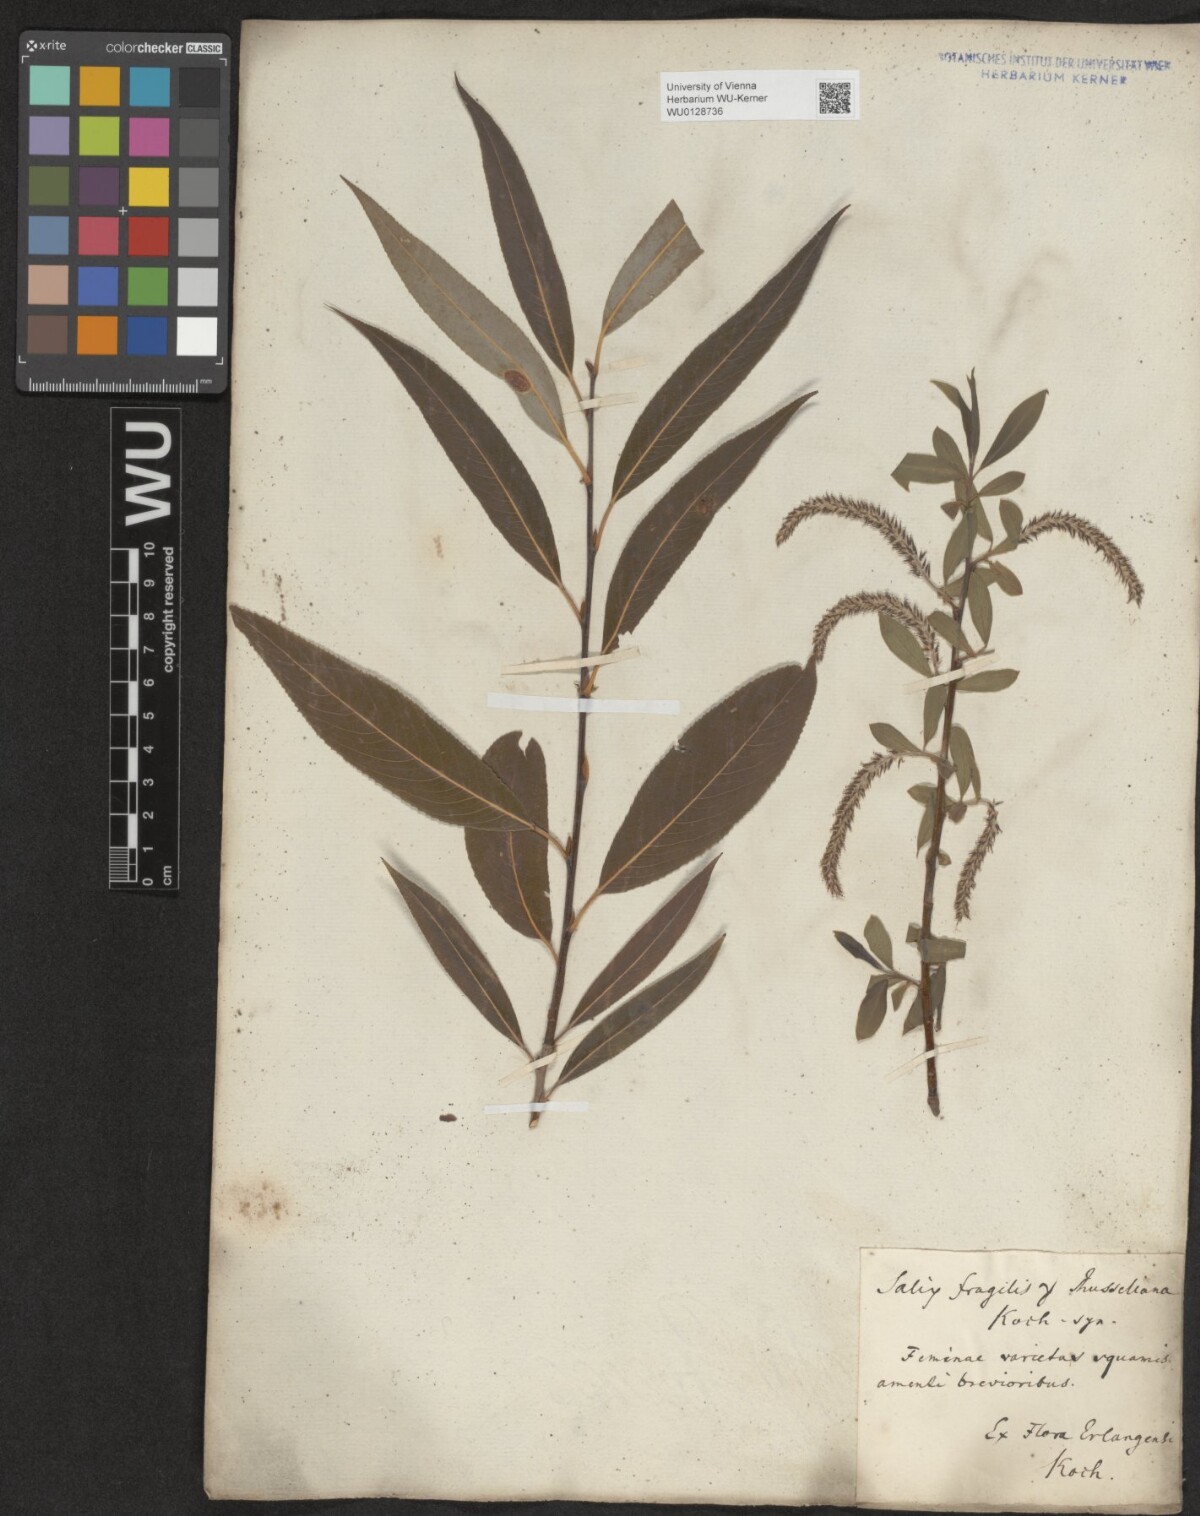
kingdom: Plantae
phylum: Tracheophyta
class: Magnoliopsida
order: Malpighiales
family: Salicaceae
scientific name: Salicaceae
